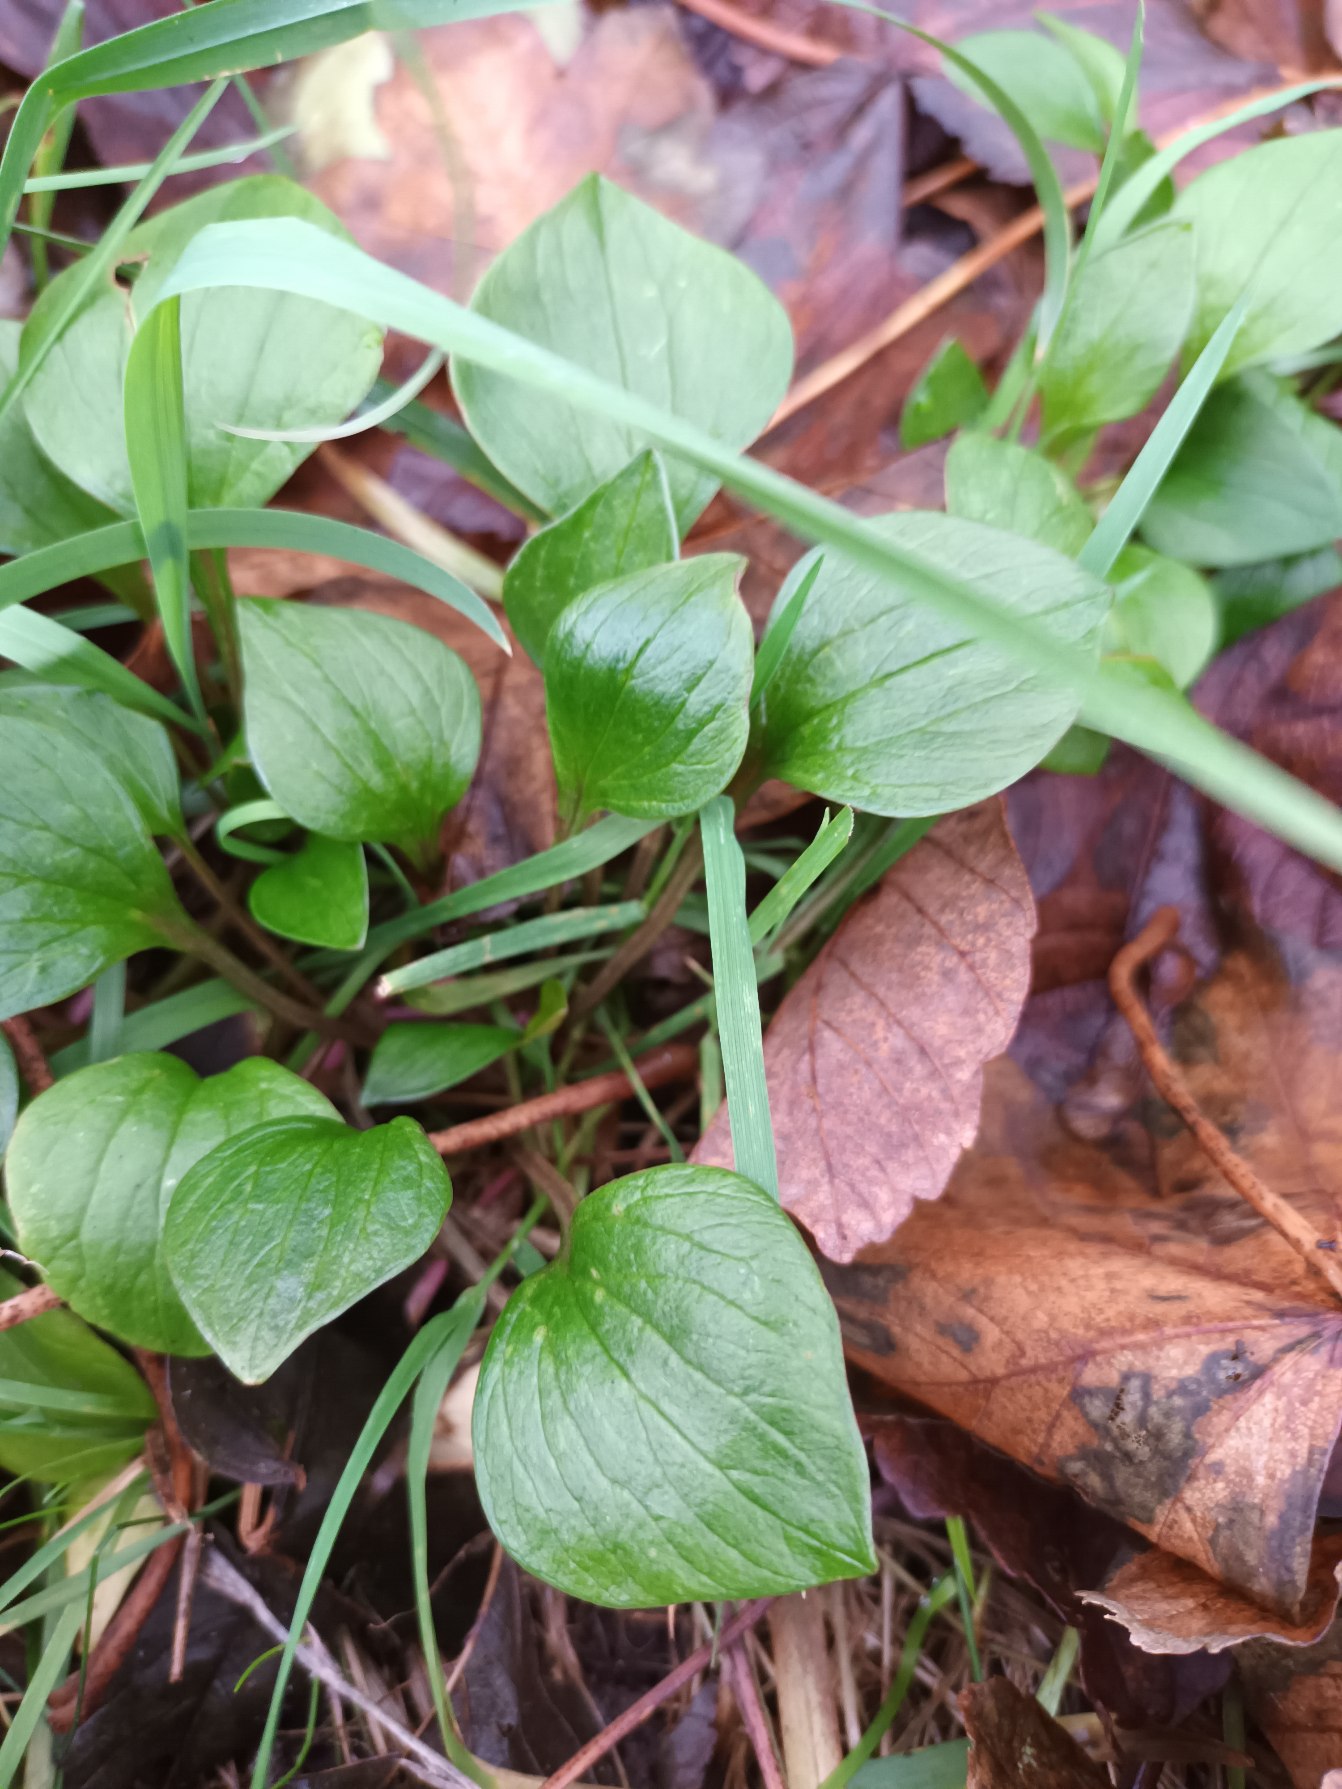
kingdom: Plantae
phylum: Tracheophyta
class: Magnoliopsida
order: Caryophyllales
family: Montiaceae
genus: Claytonia
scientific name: Claytonia sibirica
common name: Sibirisk vinterportulak
